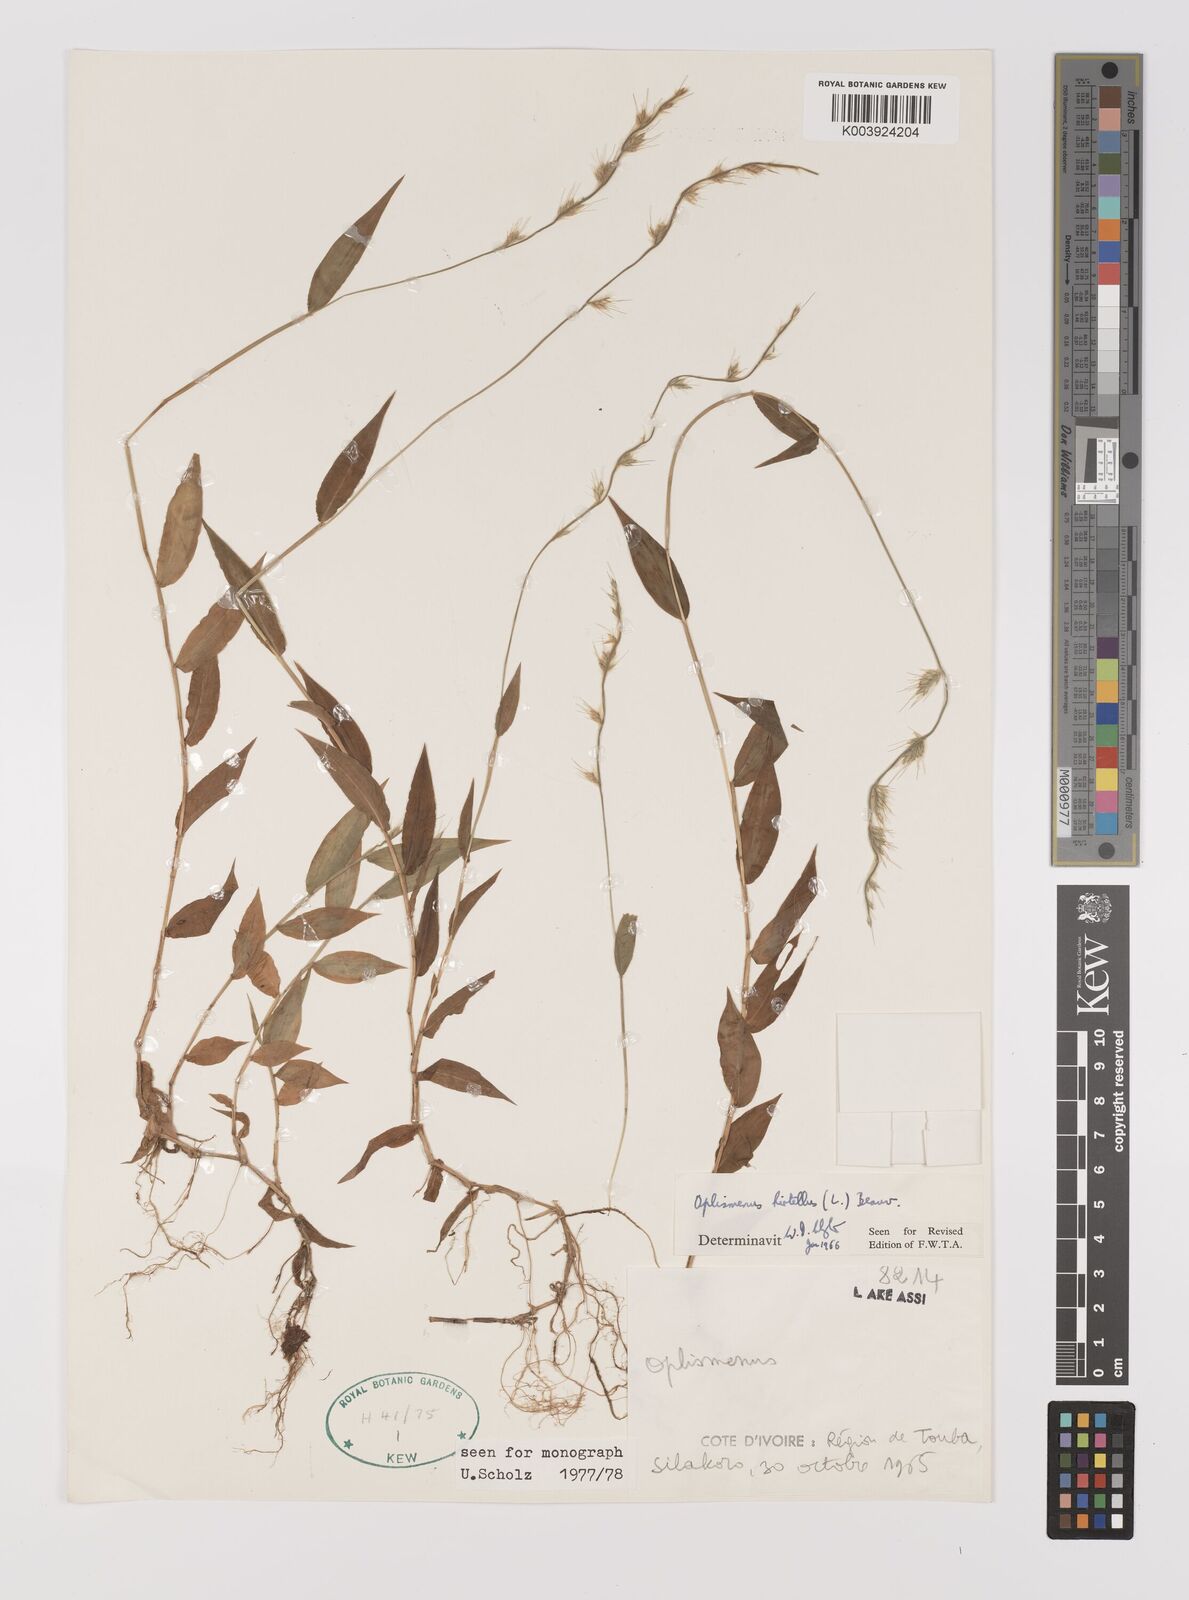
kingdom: Plantae
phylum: Tracheophyta
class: Liliopsida
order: Poales
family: Poaceae
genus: Oplismenus
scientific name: Oplismenus hirtellus
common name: Basketgrass
